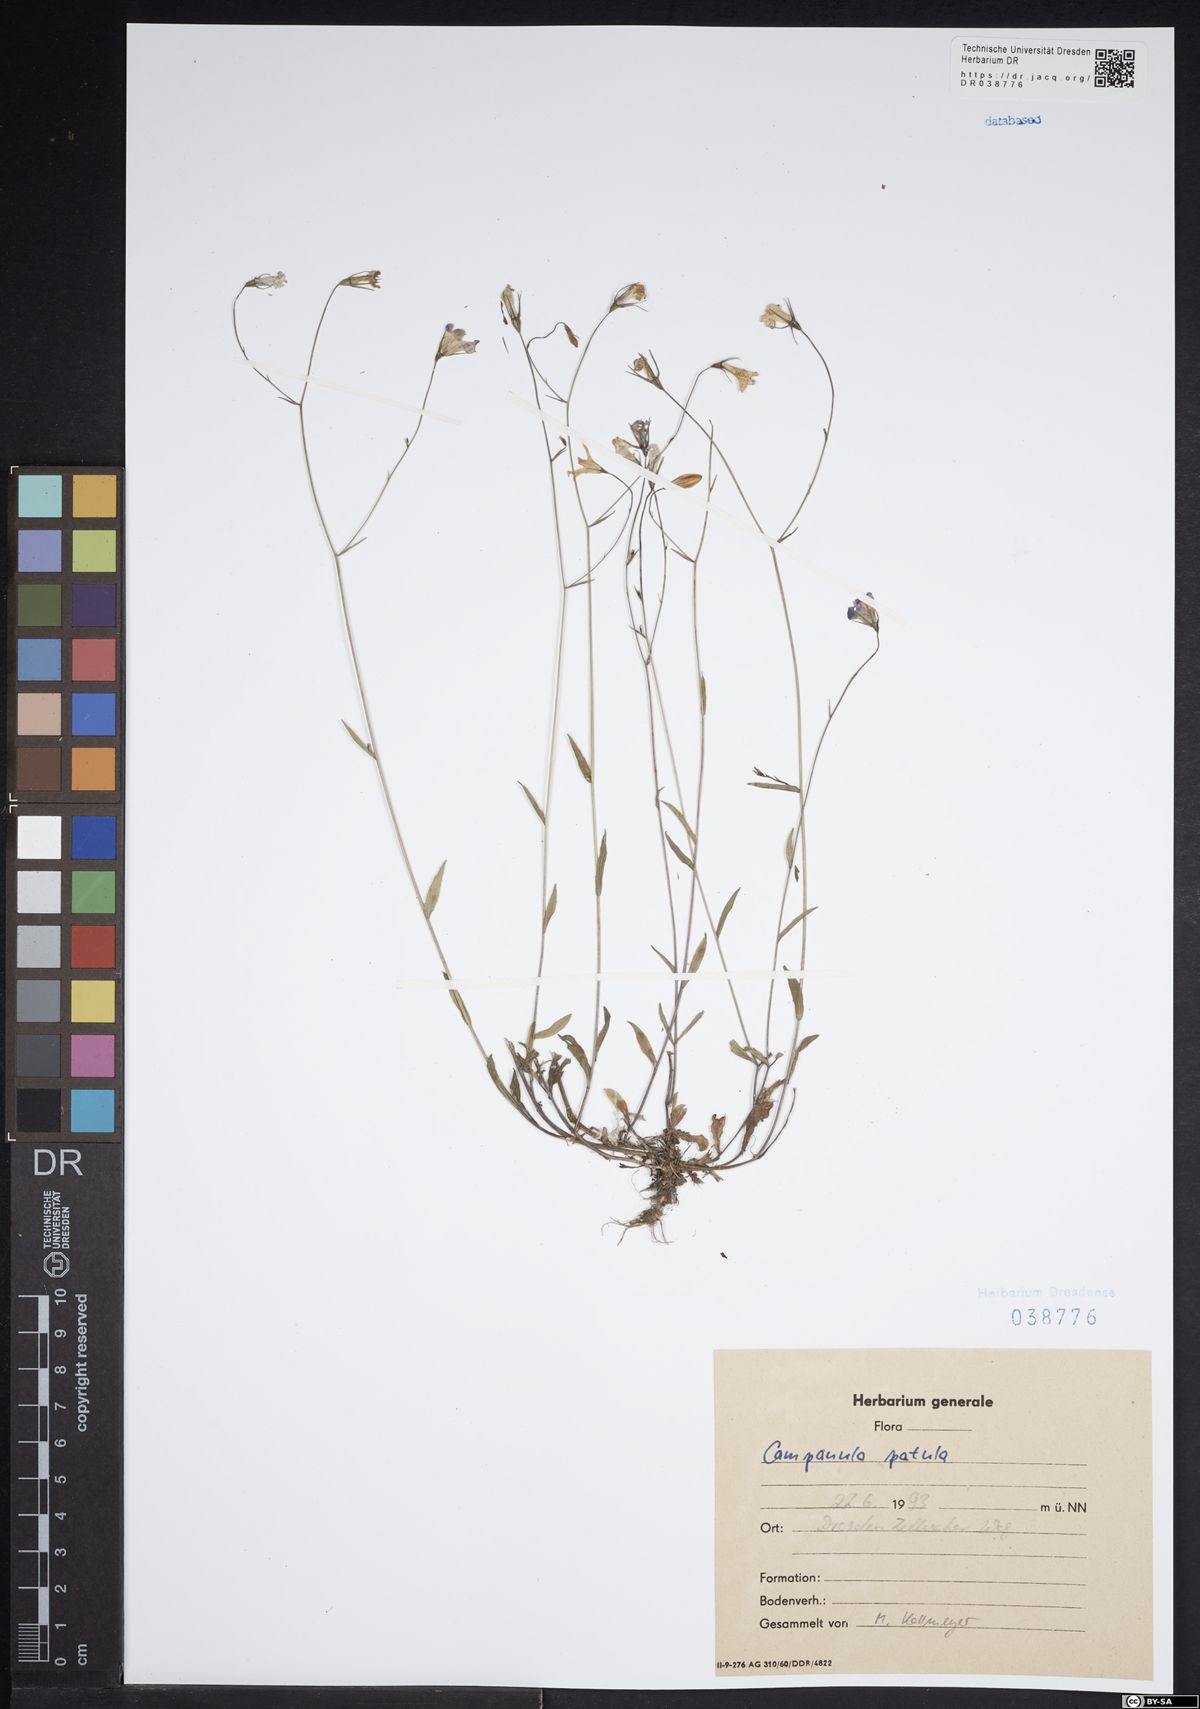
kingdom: Plantae
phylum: Tracheophyta
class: Magnoliopsida
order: Asterales
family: Campanulaceae
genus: Campanula
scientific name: Campanula patula
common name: Spreading bellflower
